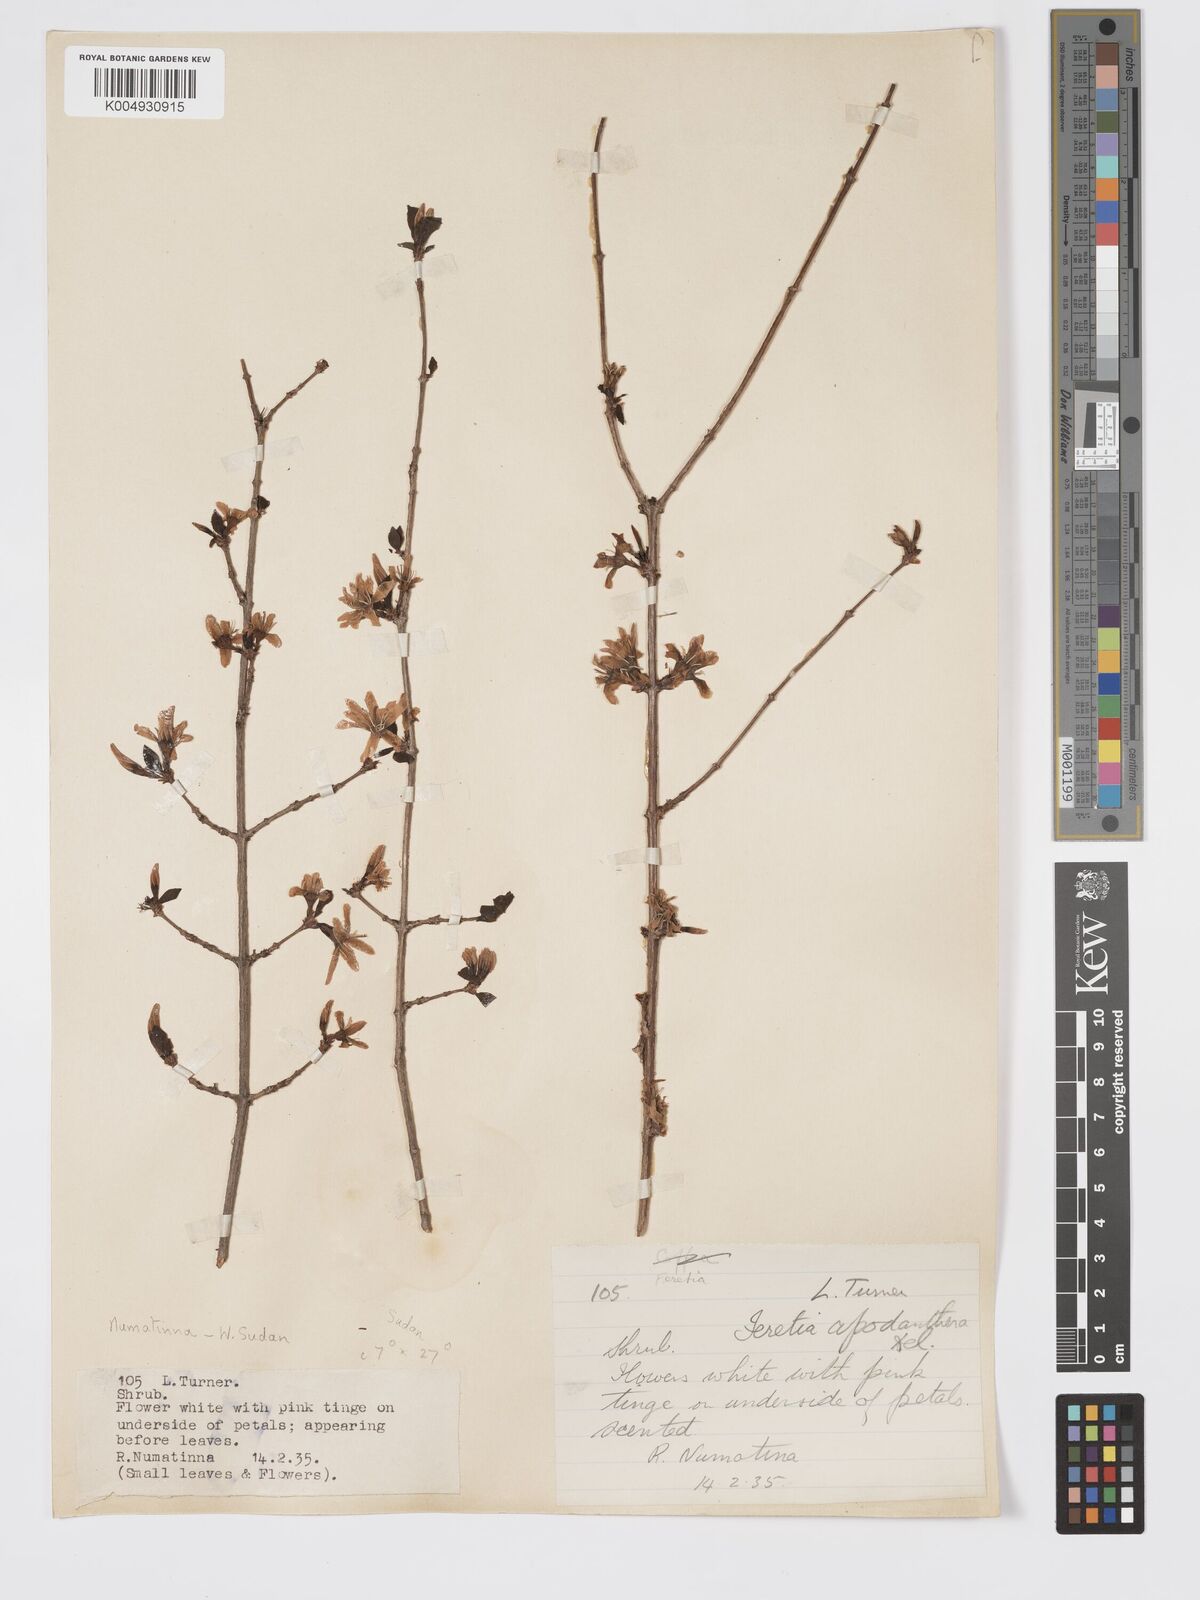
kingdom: Plantae
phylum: Tracheophyta
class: Magnoliopsida
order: Gentianales
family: Rubiaceae
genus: Feretia
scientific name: Feretia apodanthera
